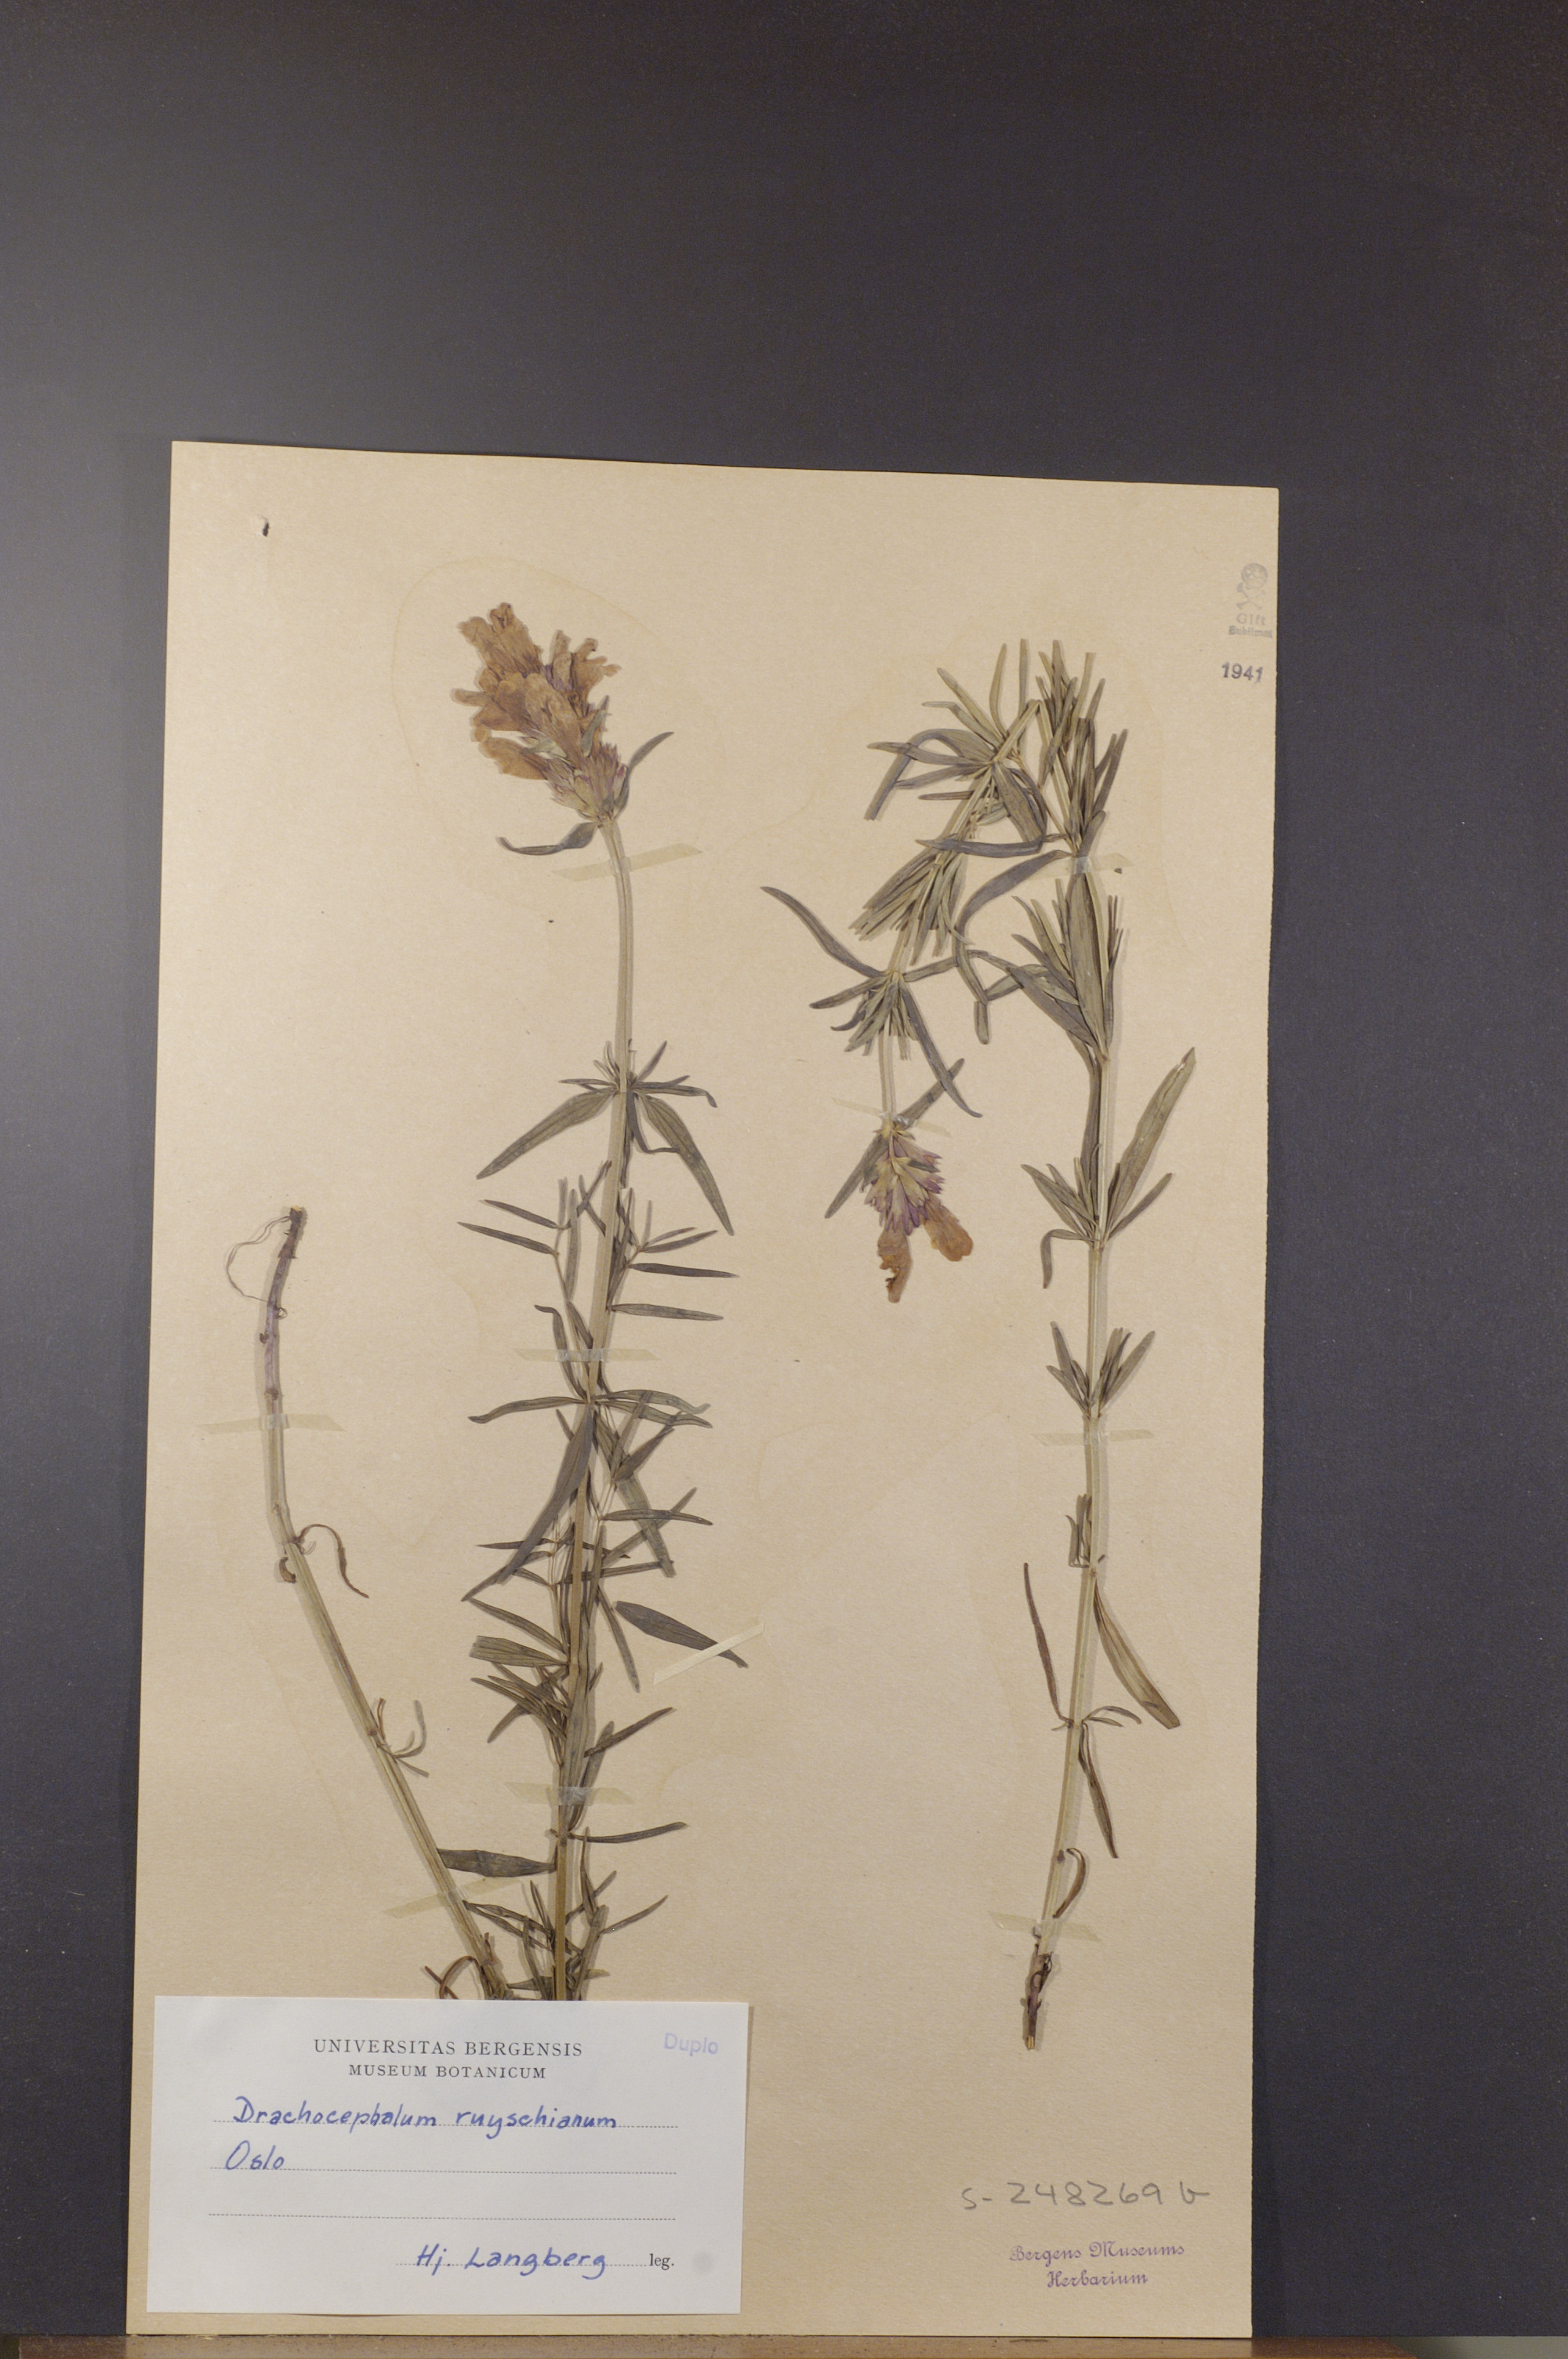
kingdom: Plantae
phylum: Tracheophyta
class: Magnoliopsida
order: Lamiales
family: Lamiaceae
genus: Dracocephalum
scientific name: Dracocephalum ruyschiana
